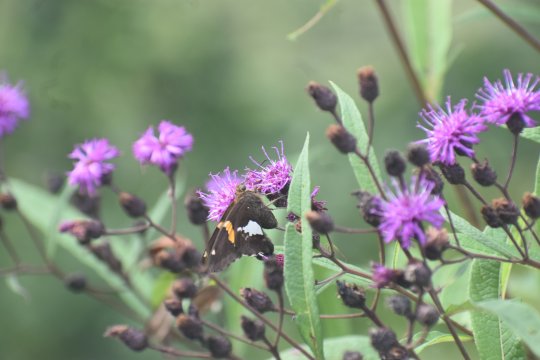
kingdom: Animalia
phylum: Arthropoda
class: Insecta
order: Lepidoptera
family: Hesperiidae
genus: Epargyreus
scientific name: Epargyreus clarus
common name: Silver-spotted Skipper
